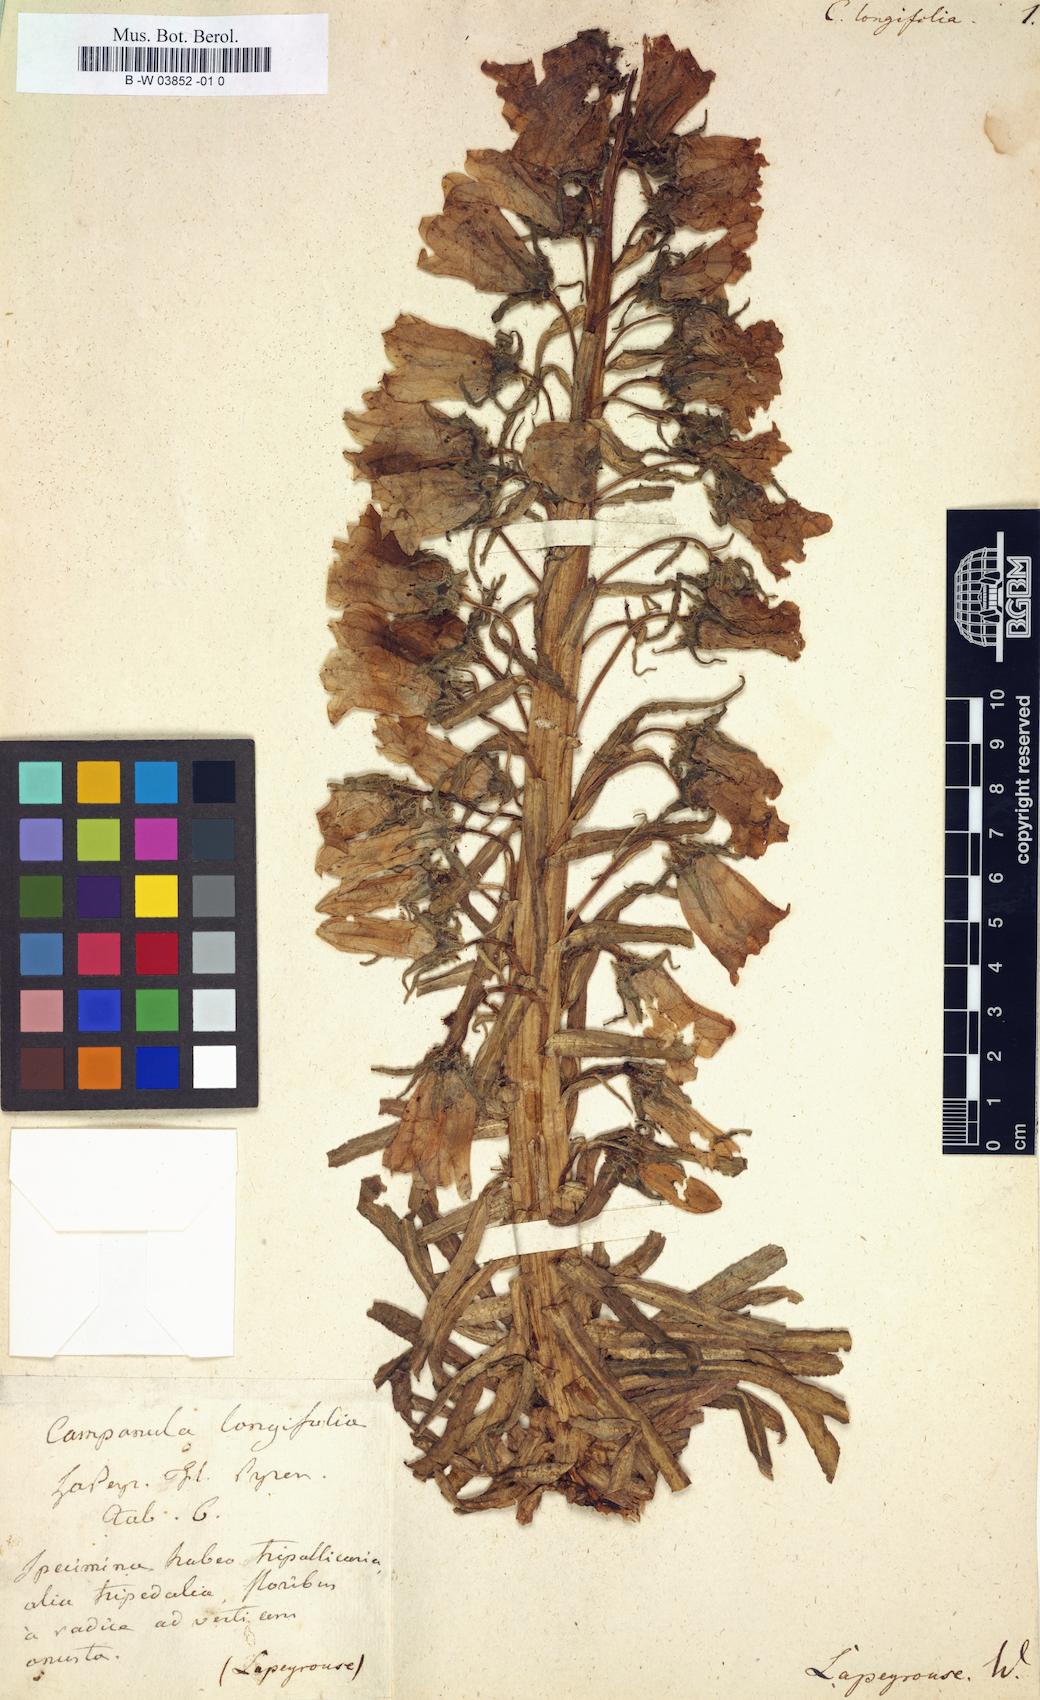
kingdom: Plantae
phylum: Tracheophyta
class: Magnoliopsida
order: Asterales
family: Campanulaceae
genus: Campanula
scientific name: Campanula
